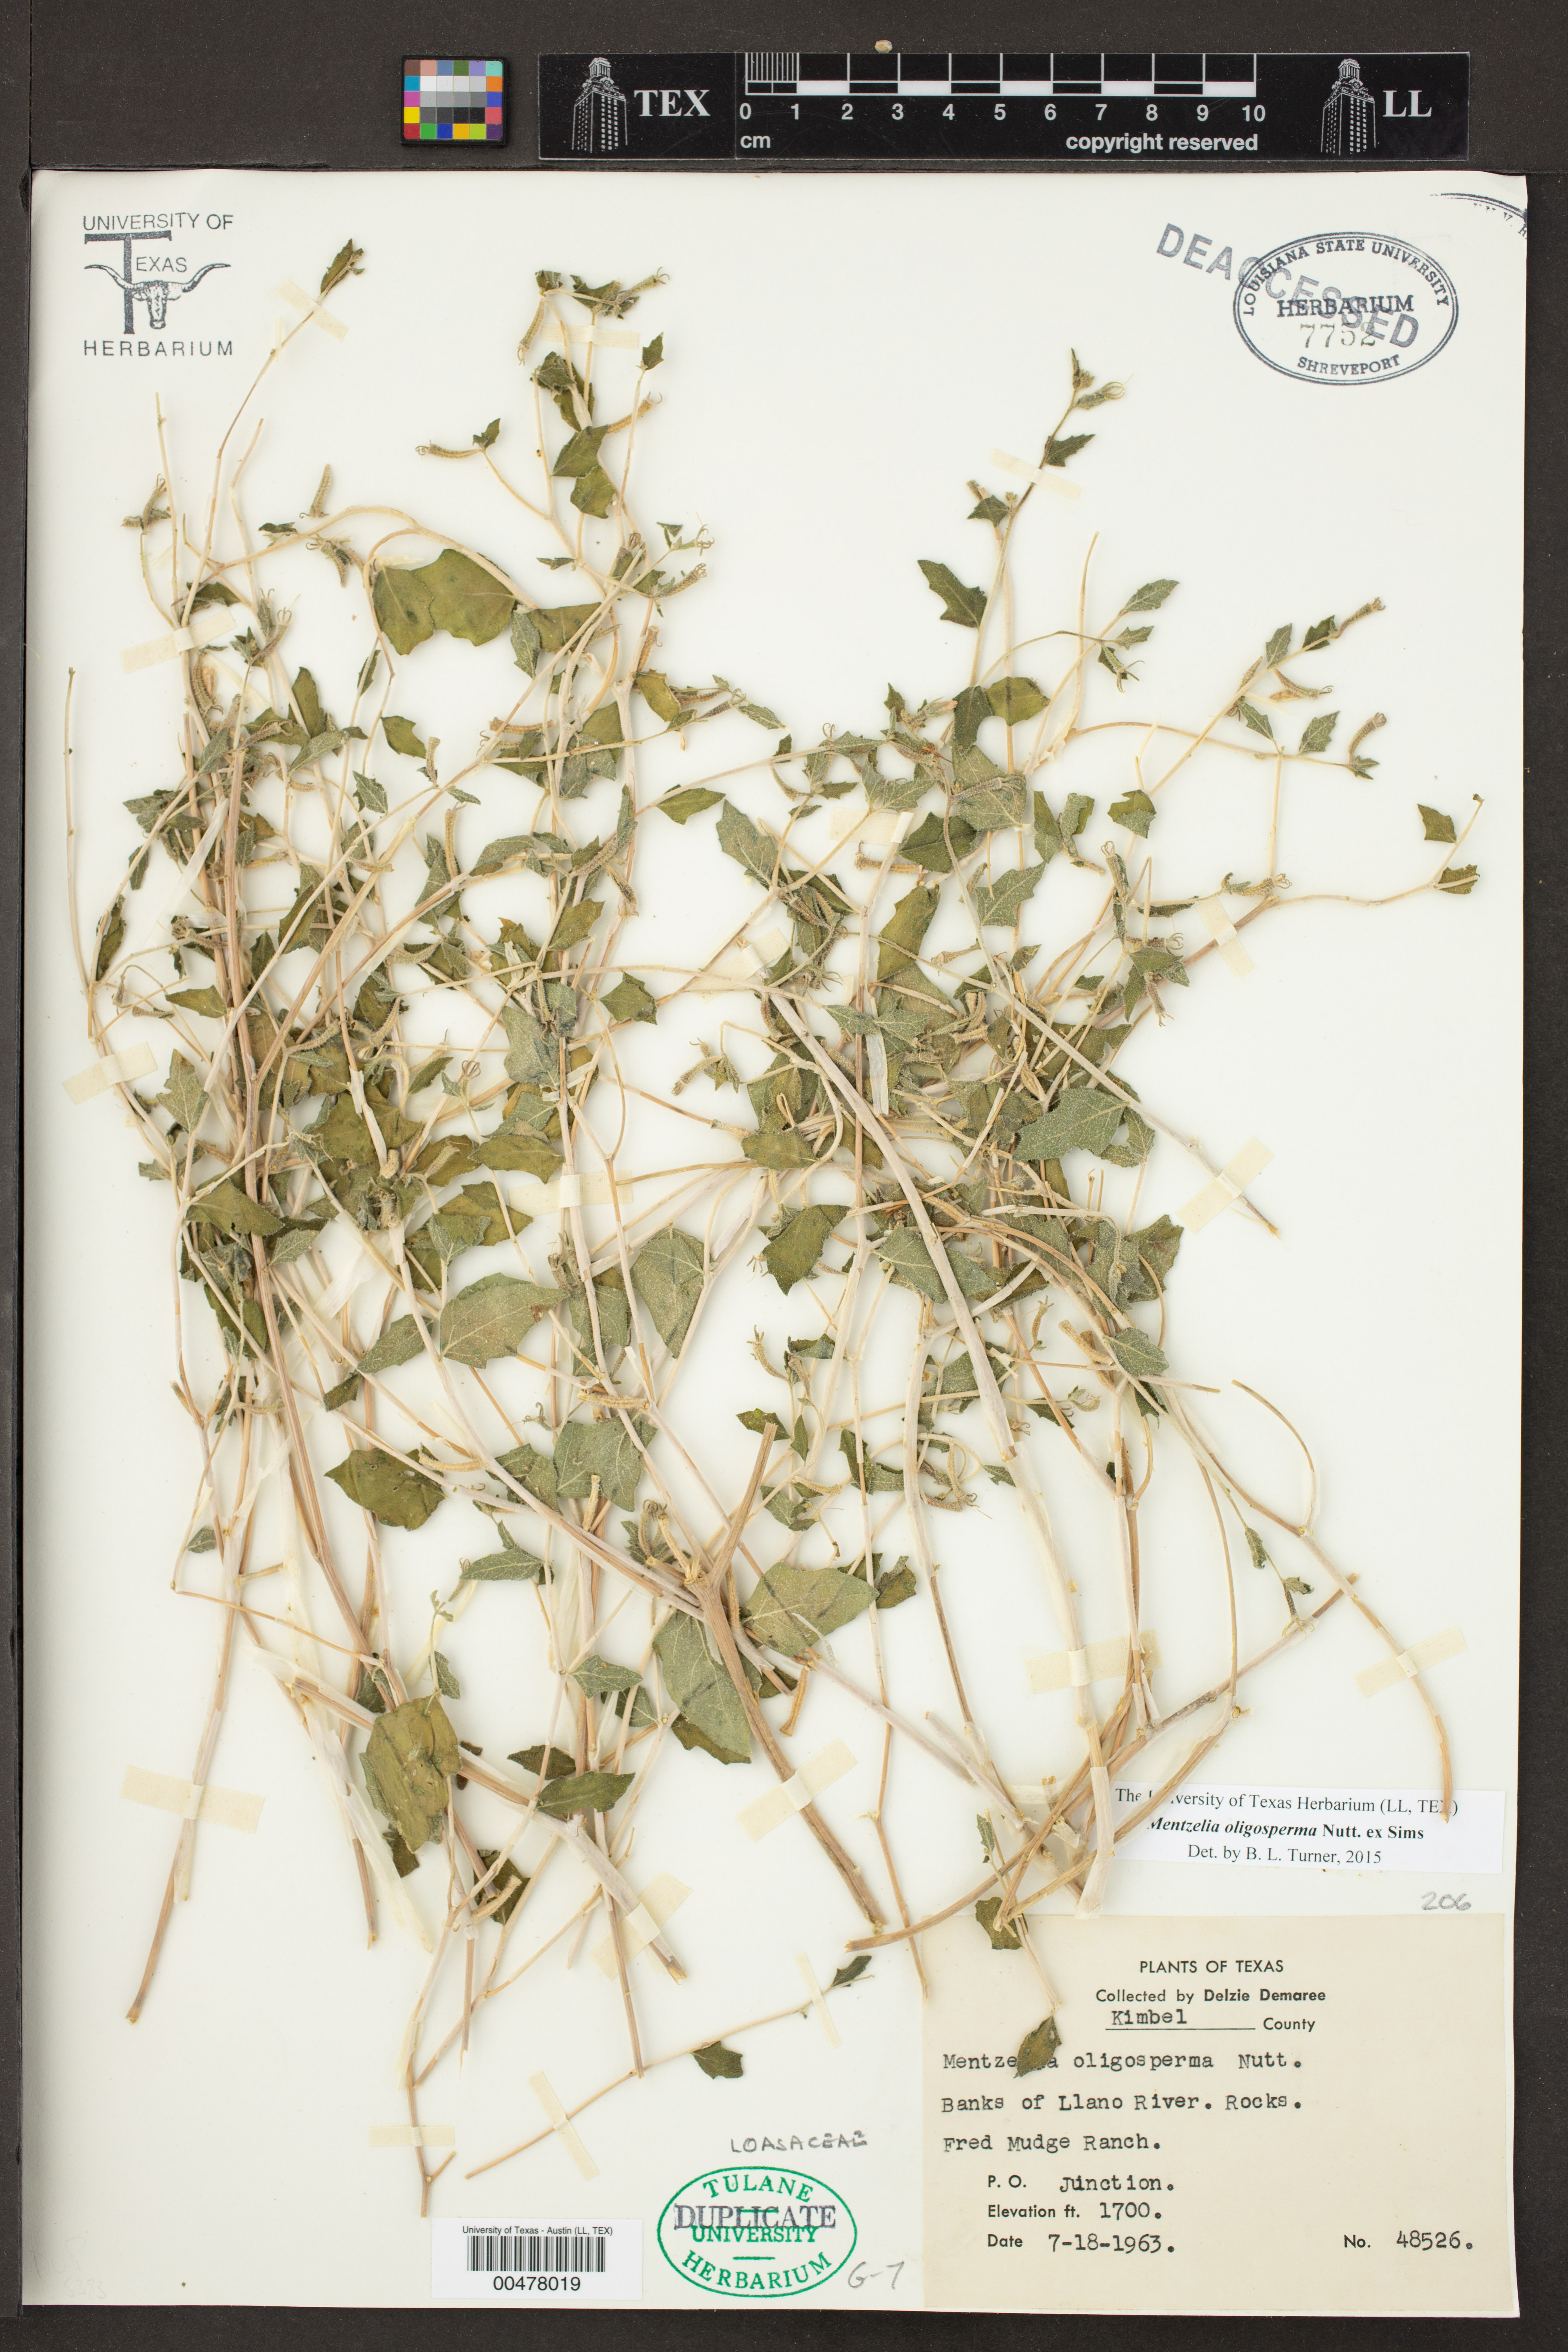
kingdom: Plantae
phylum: Tracheophyta
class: Magnoliopsida
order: Cornales
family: Loasaceae
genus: Mentzelia
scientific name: Mentzelia oligosperma
